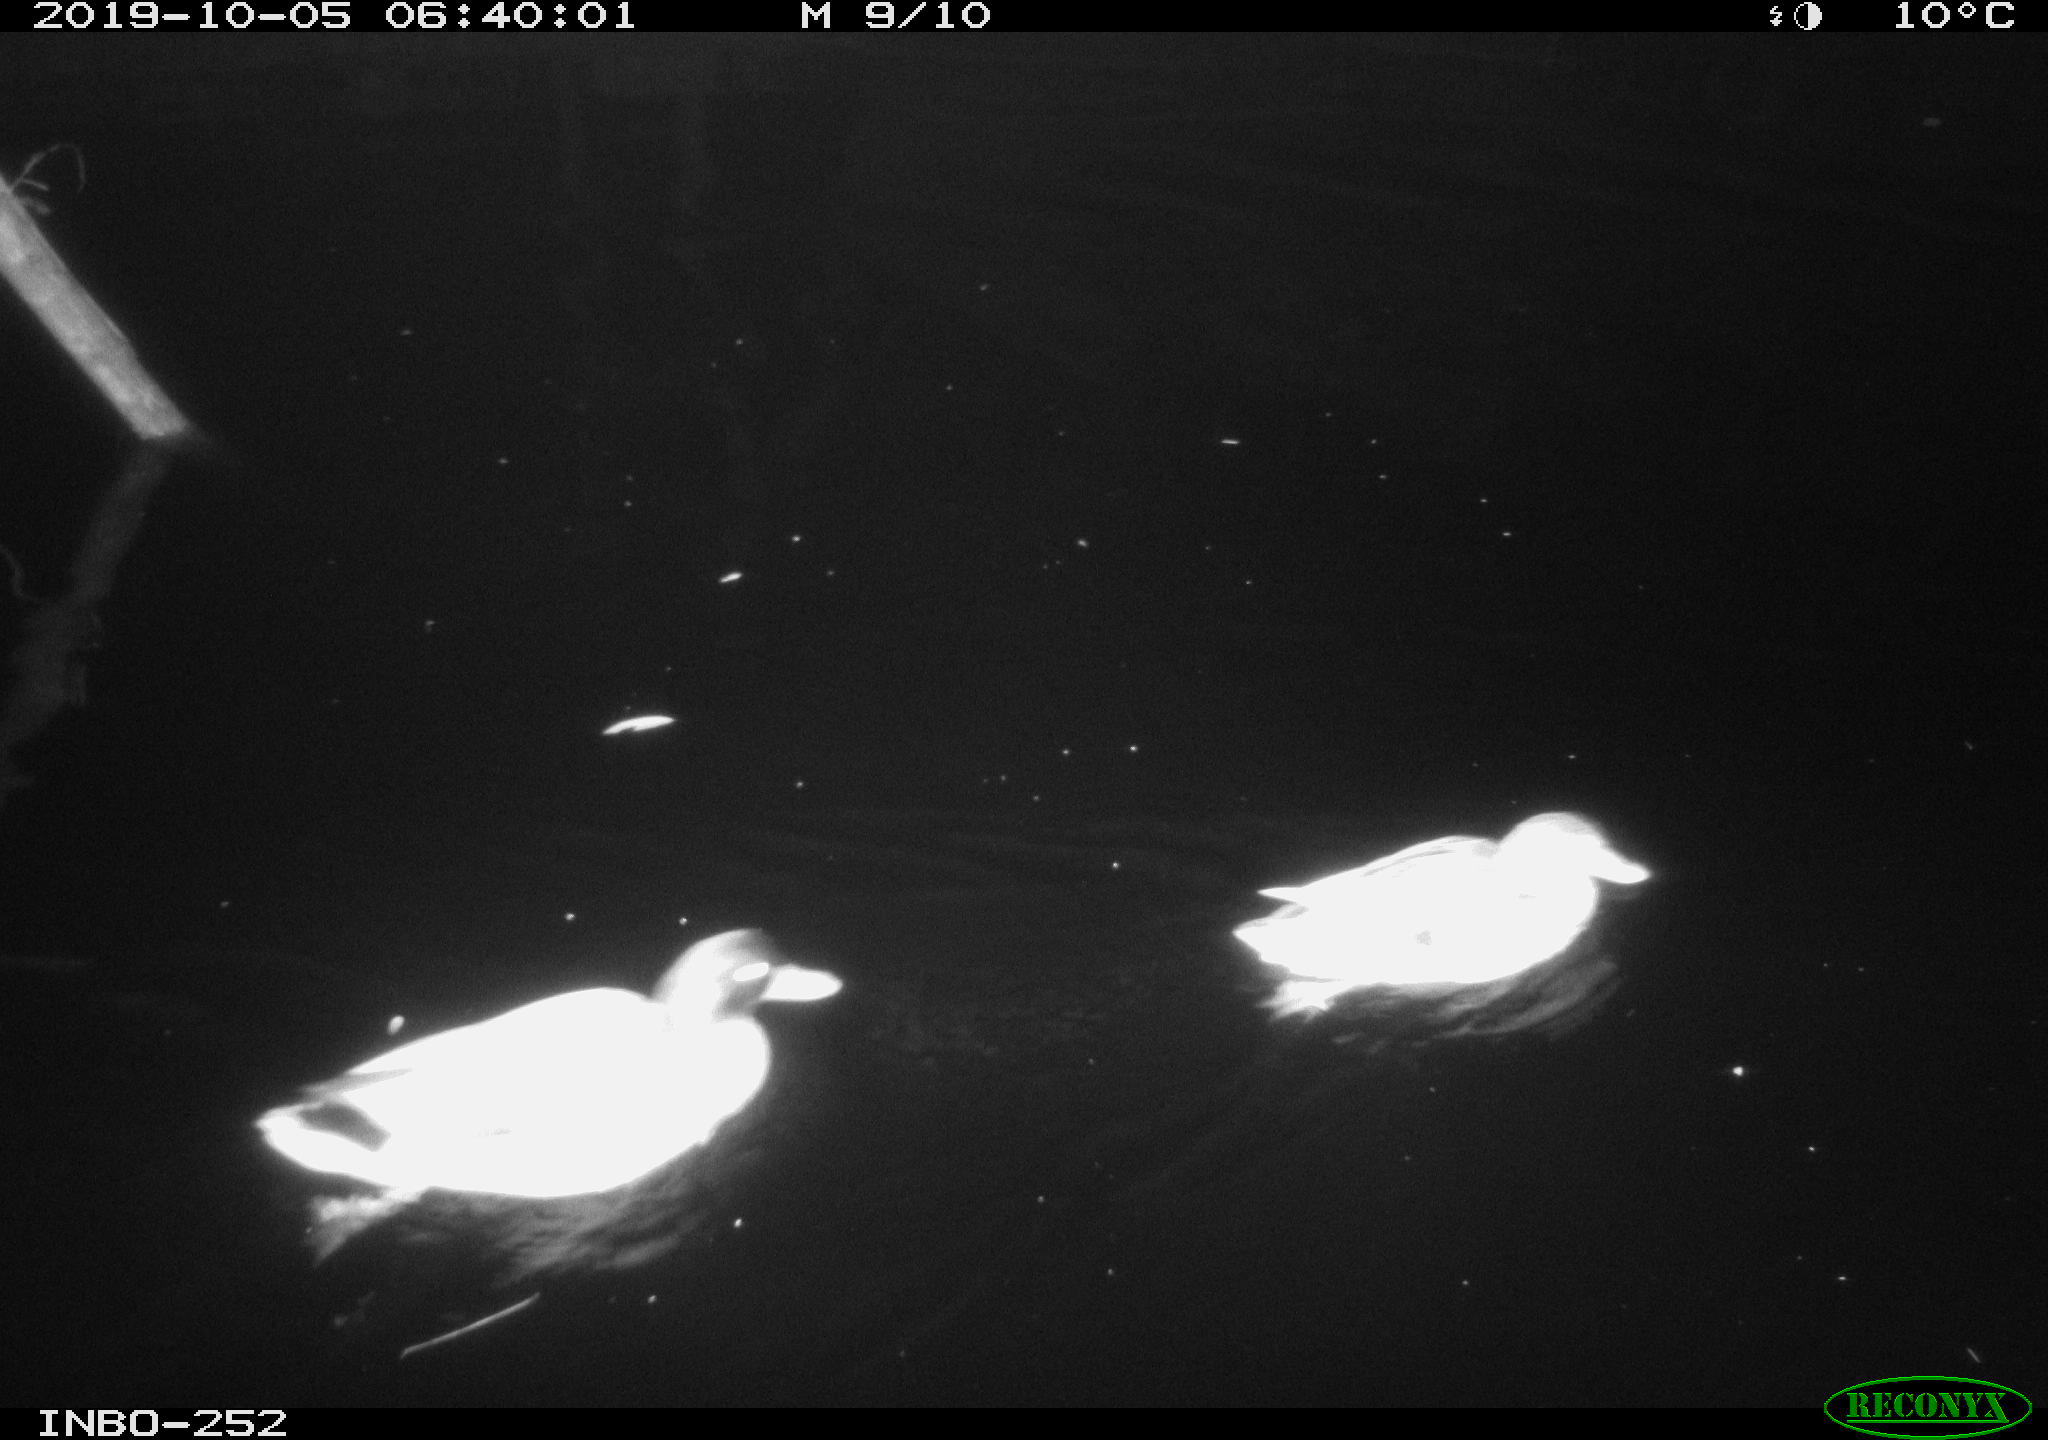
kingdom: Animalia
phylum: Chordata
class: Aves
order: Anseriformes
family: Anatidae
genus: Anas
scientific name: Anas platyrhynchos
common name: Mallard
